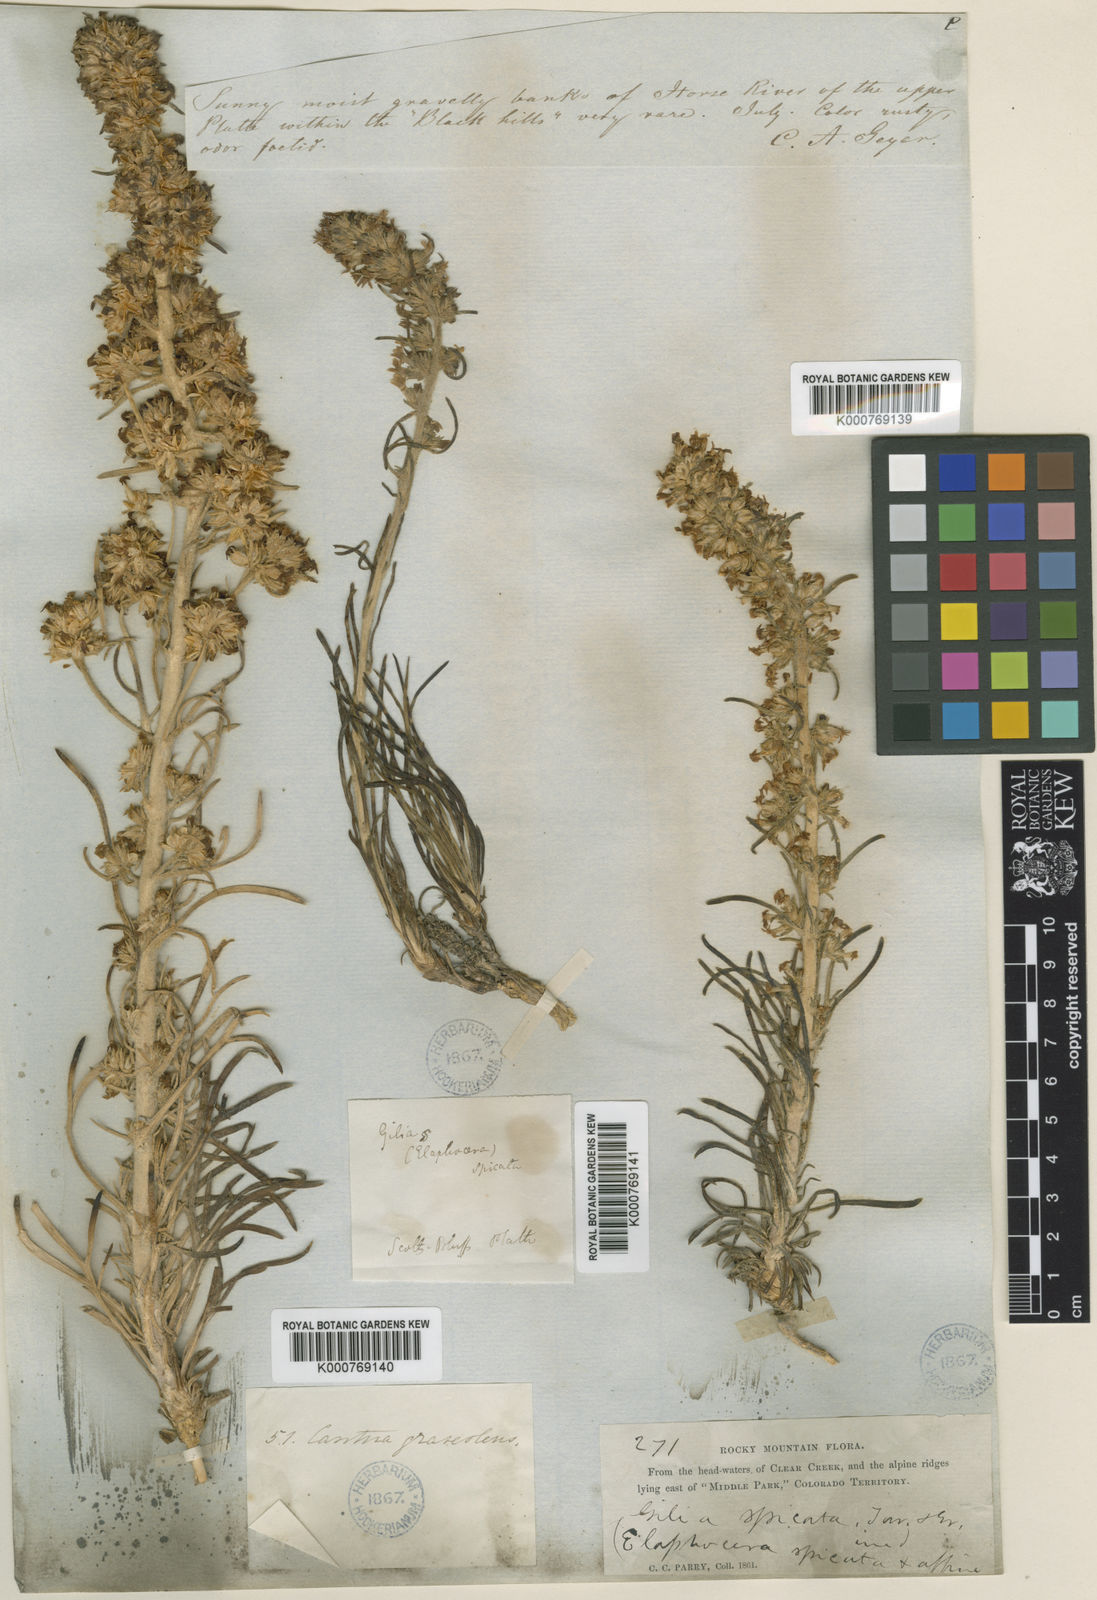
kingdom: Plantae
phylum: Tracheophyta
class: Magnoliopsida
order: Ericales
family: Polemoniaceae
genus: Ipomopsis
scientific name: Ipomopsis spicata
